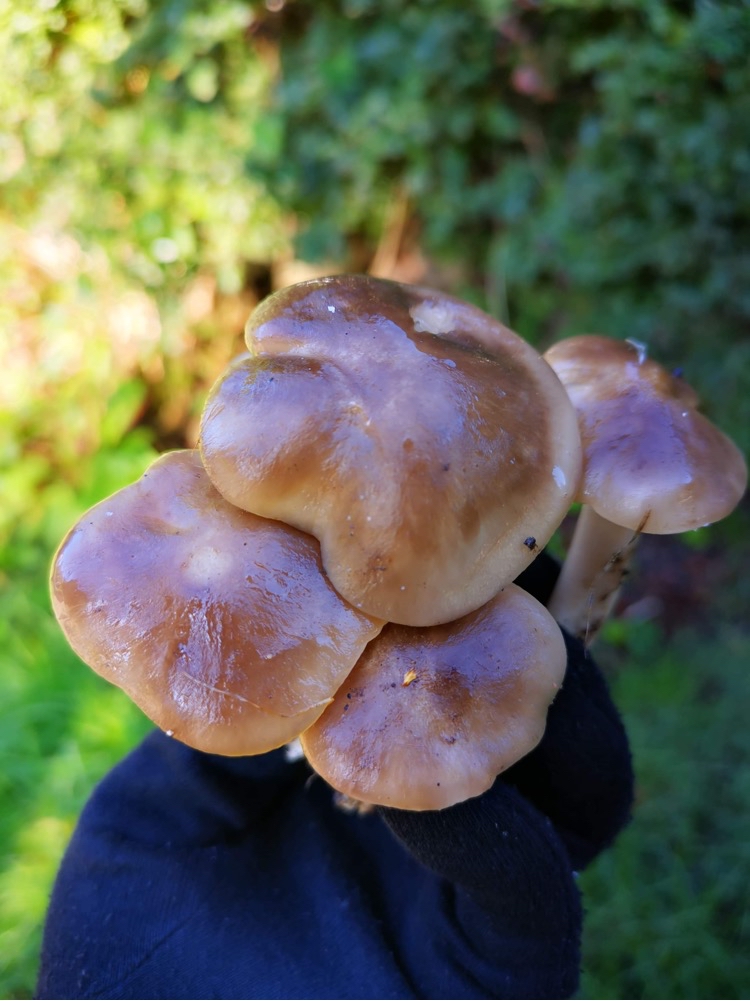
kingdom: Fungi
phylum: Basidiomycota
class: Agaricomycetes
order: Agaricales
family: Lyophyllaceae
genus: Lyophyllum
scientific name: Lyophyllum
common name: gråblad
